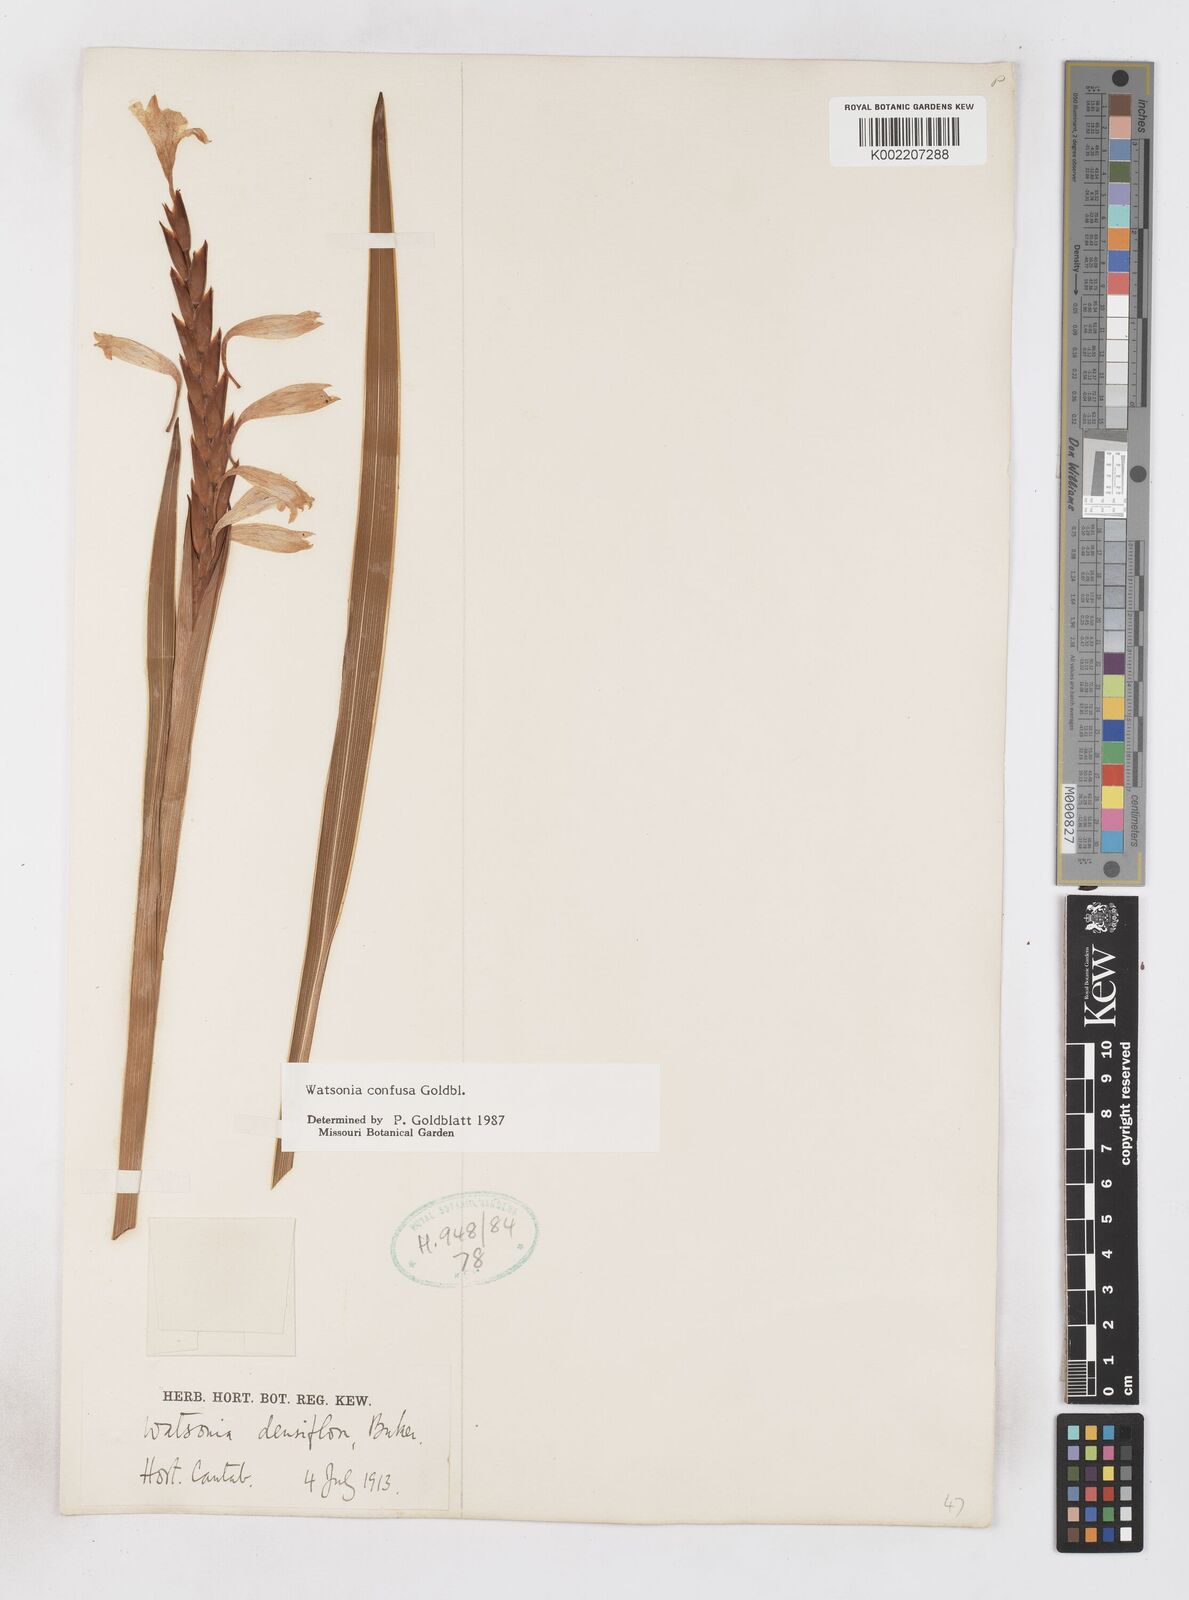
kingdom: Plantae
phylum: Tracheophyta
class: Liliopsida
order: Asparagales
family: Iridaceae
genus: Watsonia
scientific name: Watsonia confusa
